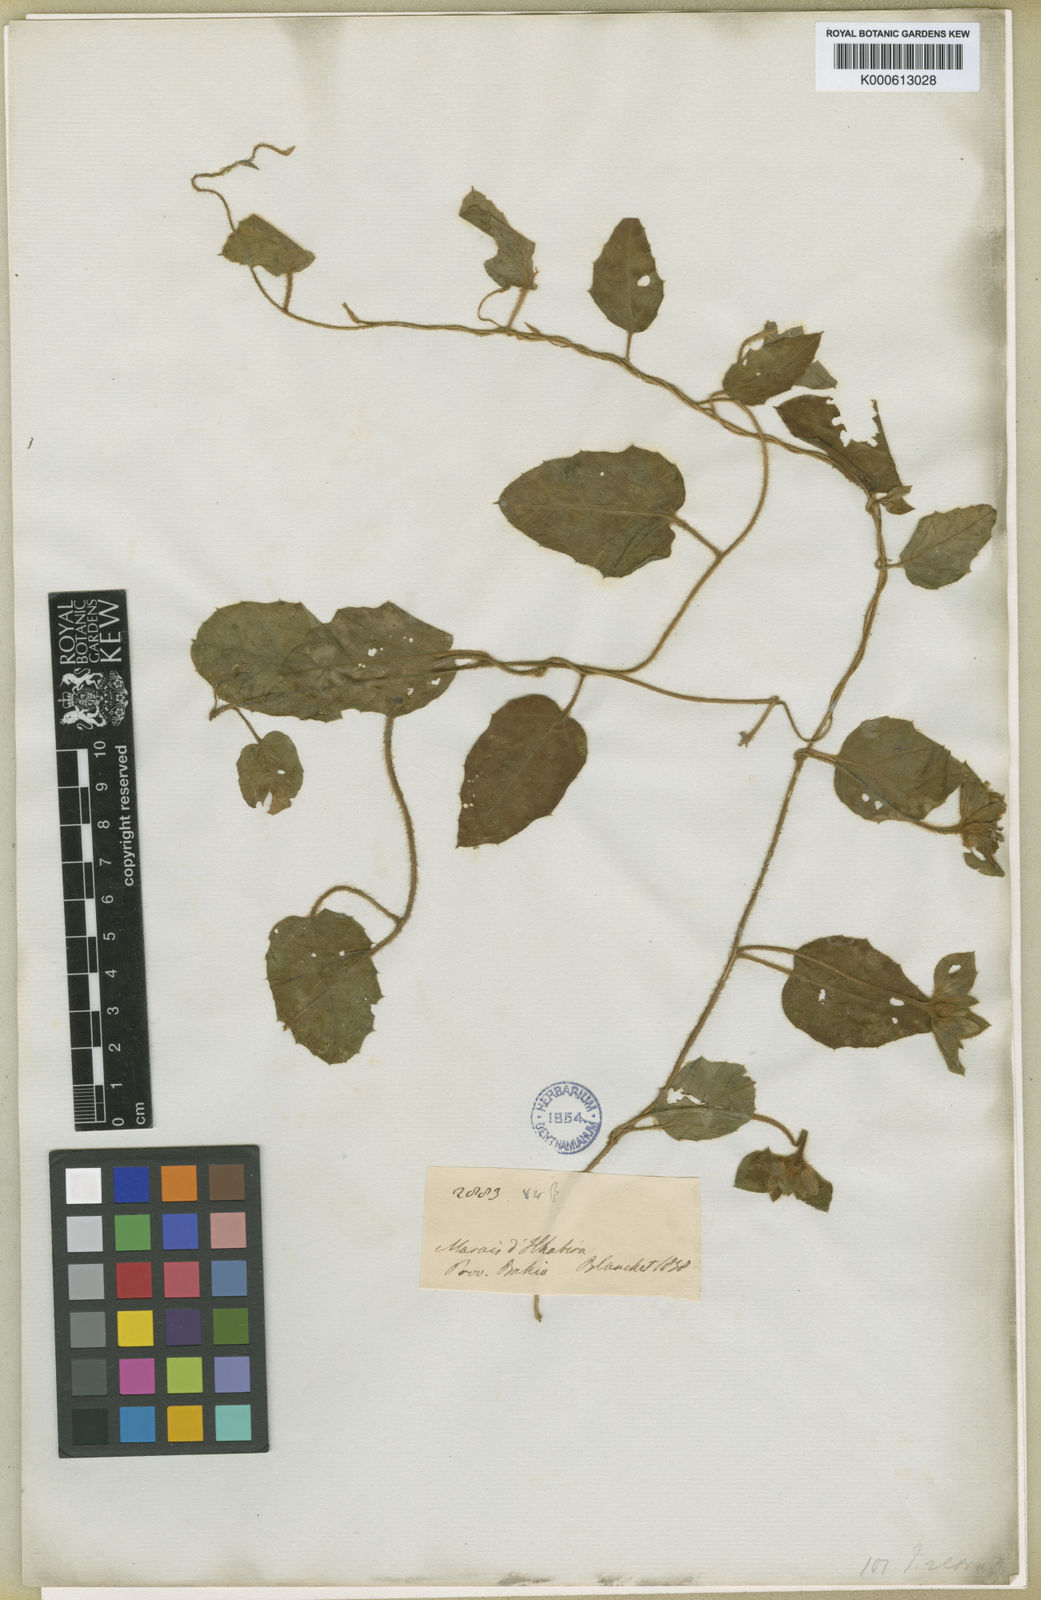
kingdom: Plantae
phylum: Tracheophyta
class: Magnoliopsida
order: Solanales
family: Convolvulaceae
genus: Daustinia
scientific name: Daustinia montana
